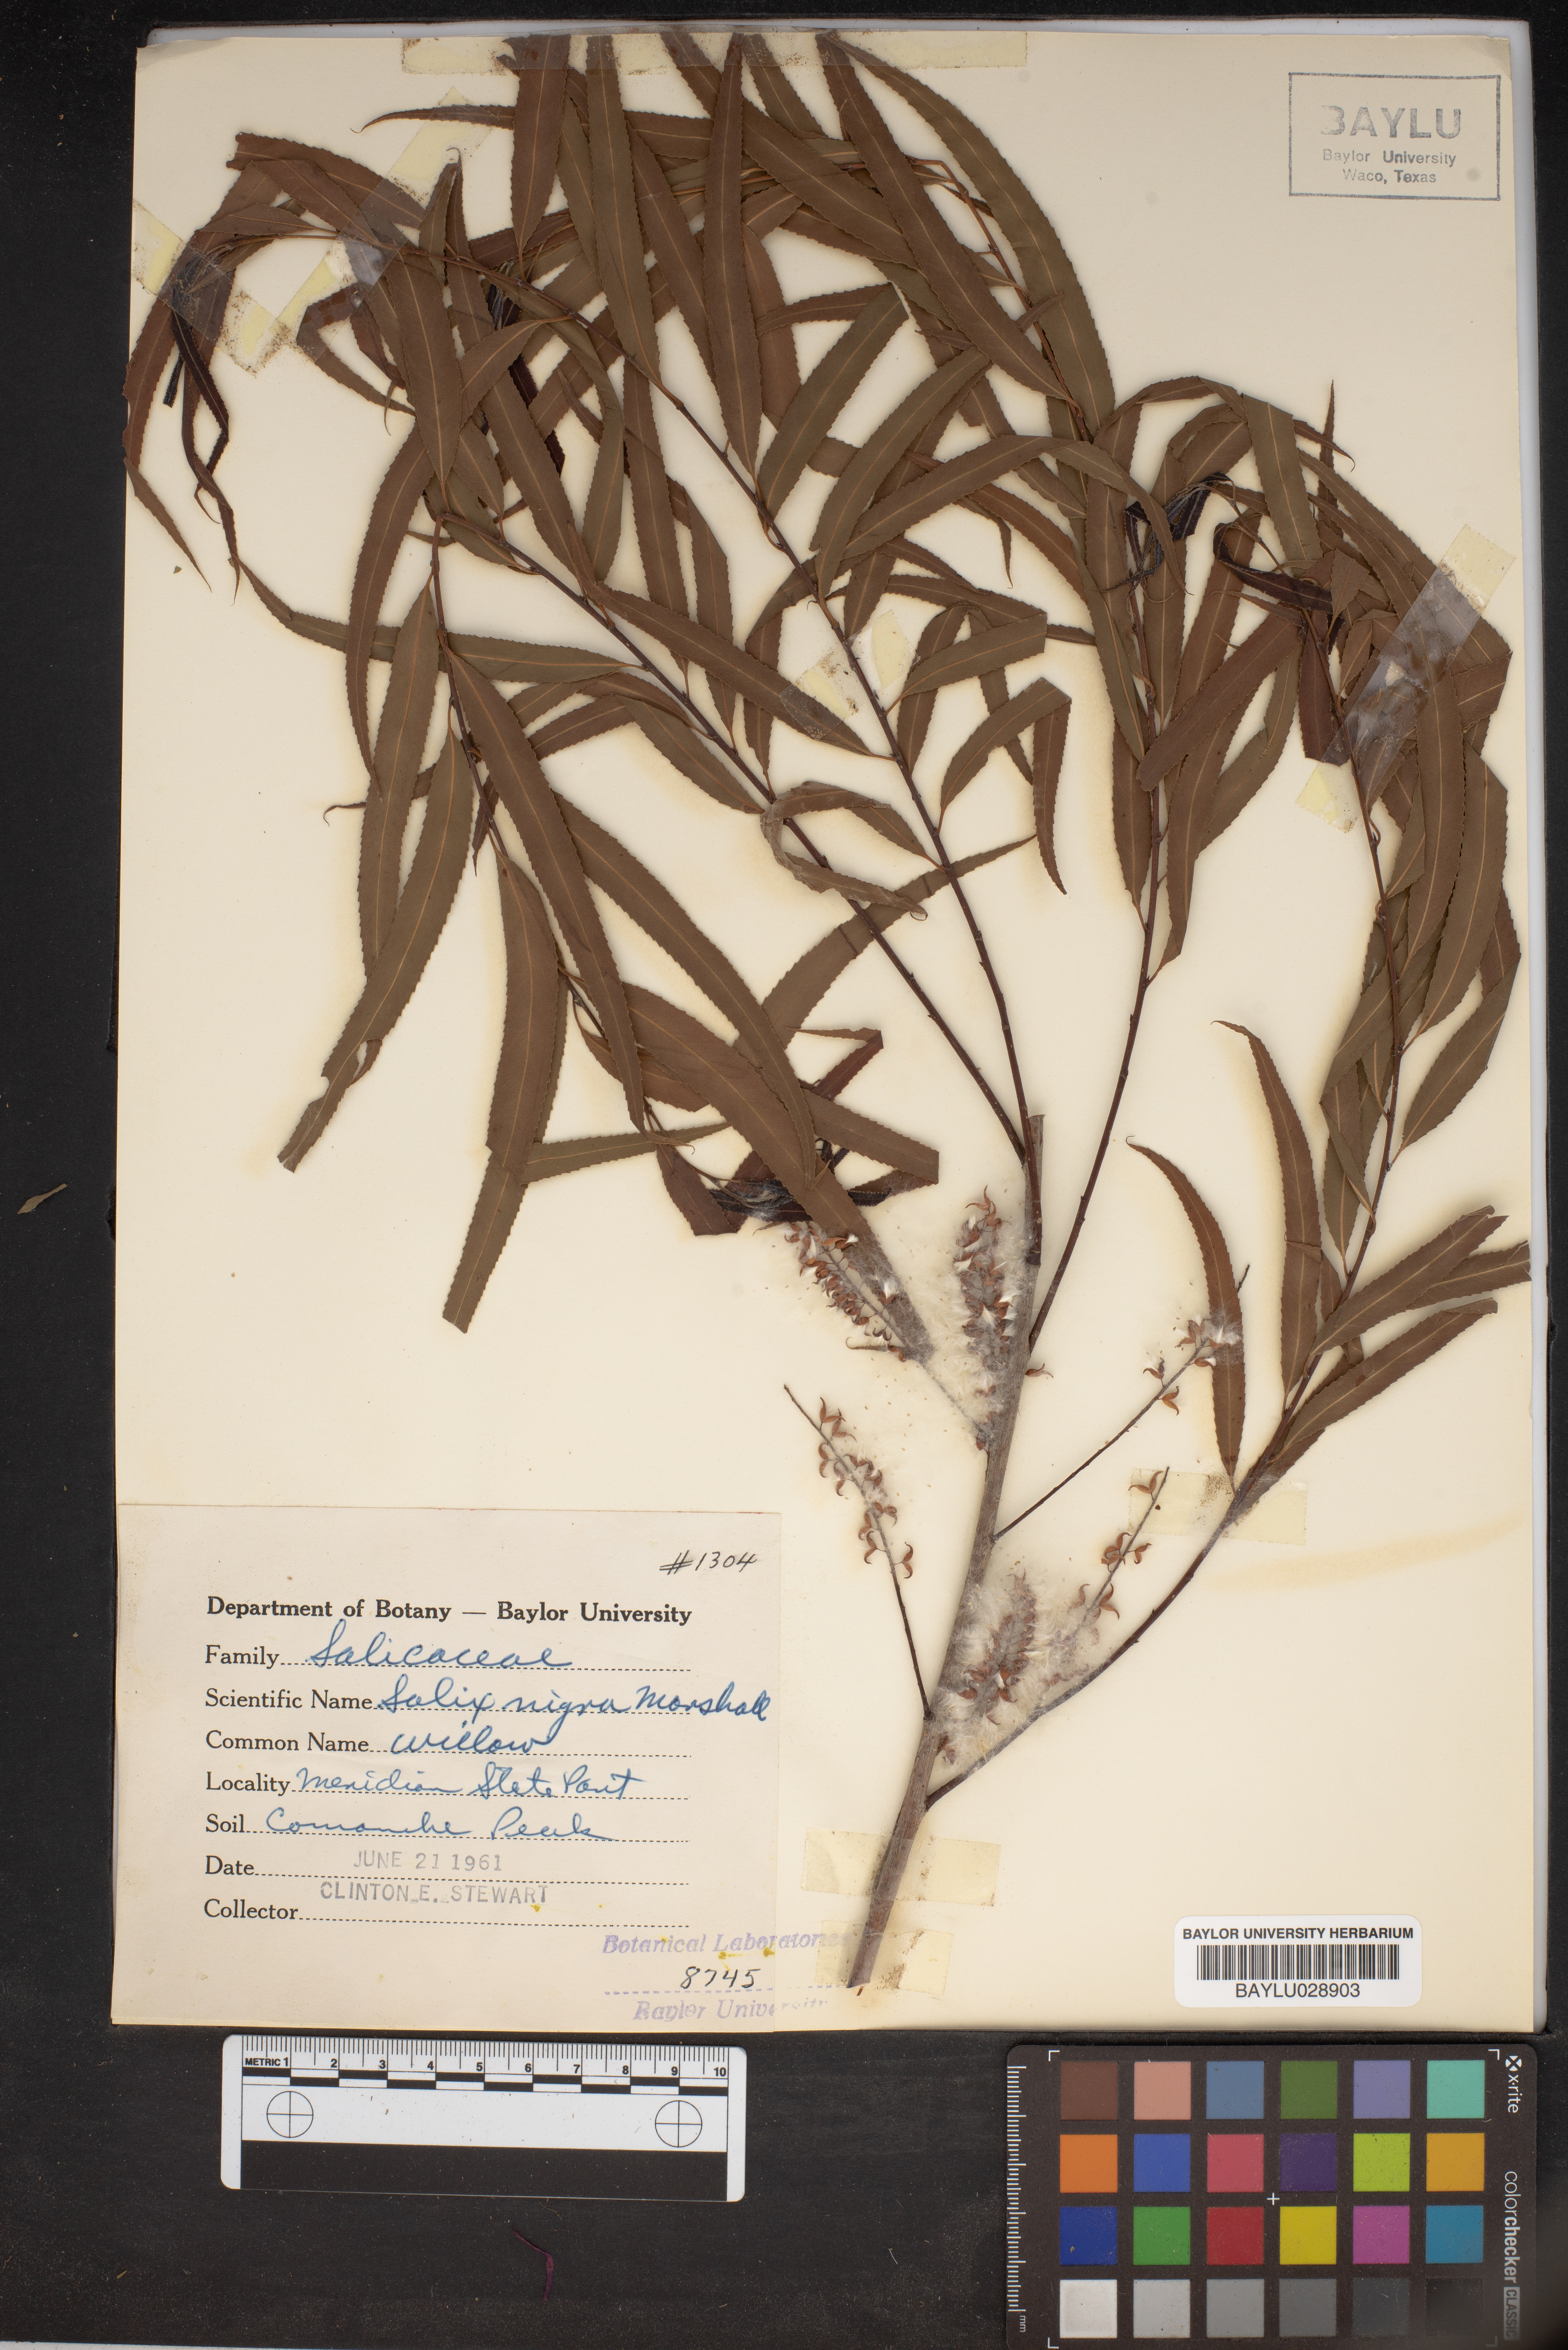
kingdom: Plantae
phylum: Tracheophyta
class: Magnoliopsida
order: Malpighiales
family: Salicaceae
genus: Salix
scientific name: Salix nigra
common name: Black willow
